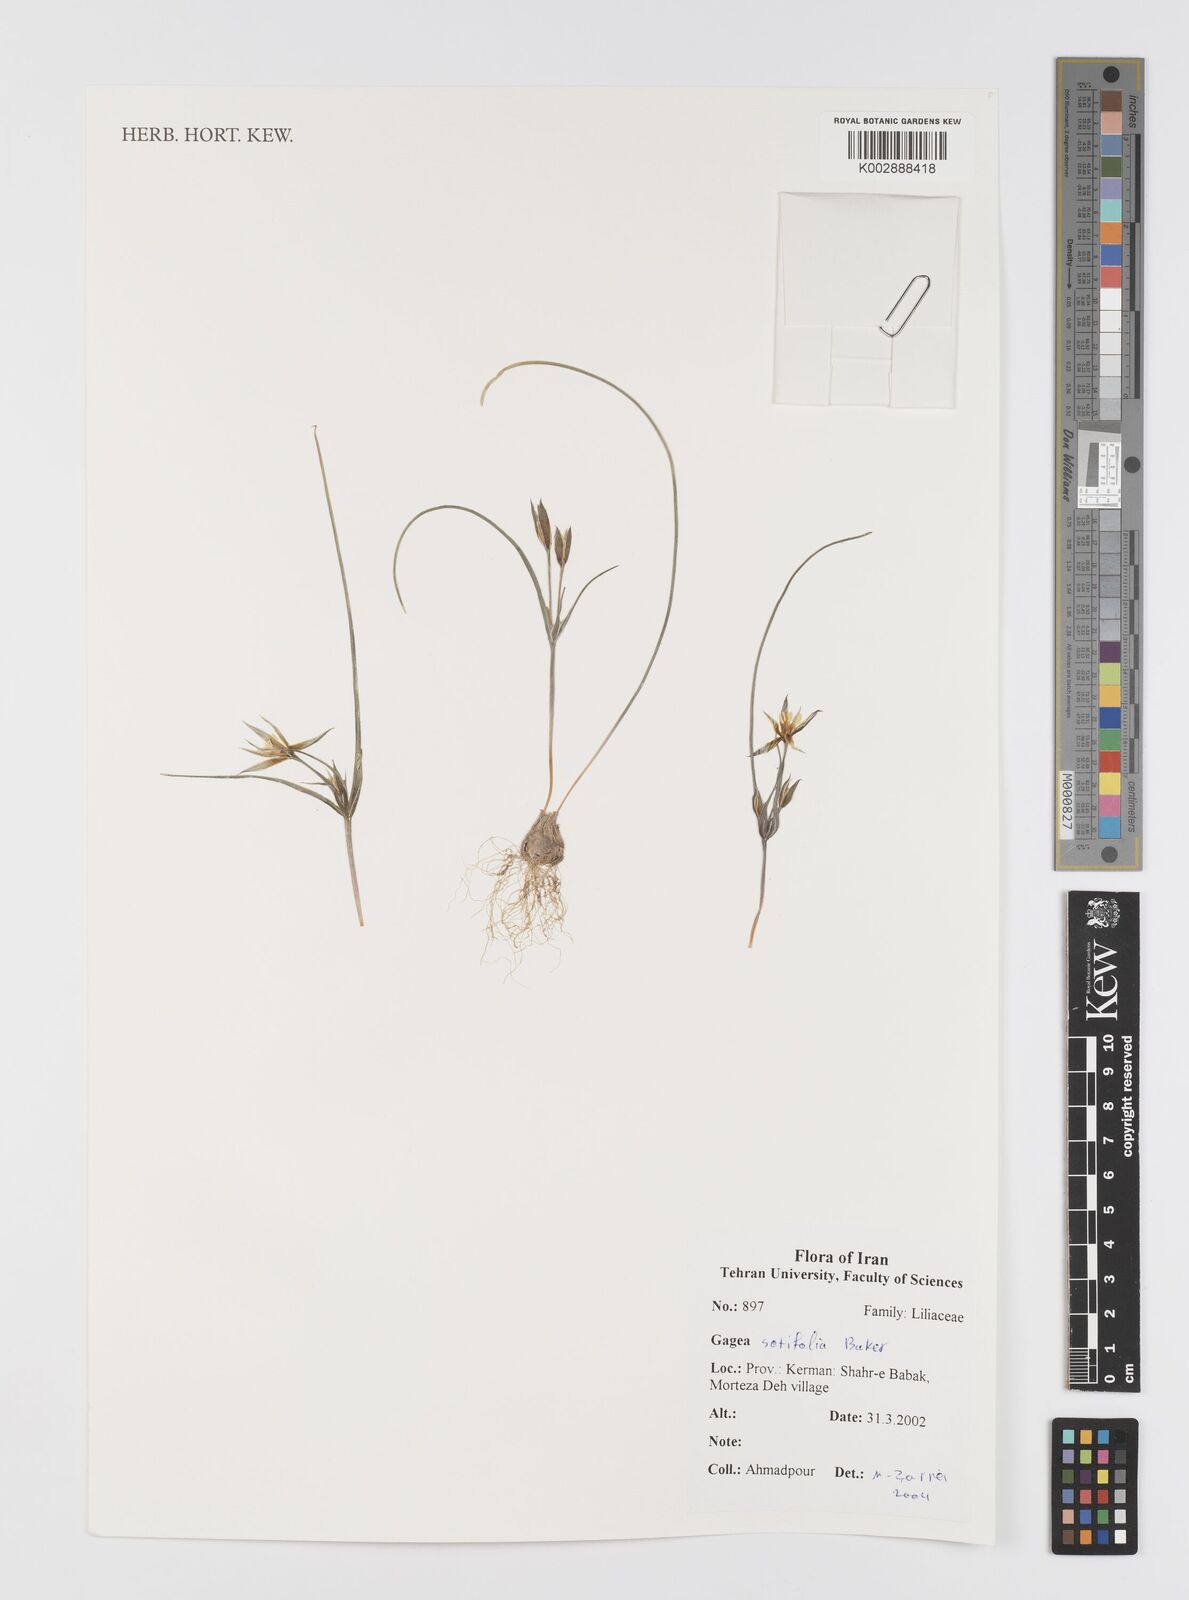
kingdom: Plantae
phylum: Tracheophyta
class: Liliopsida
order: Liliales
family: Liliaceae
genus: Gagea
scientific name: Gagea setifolia
